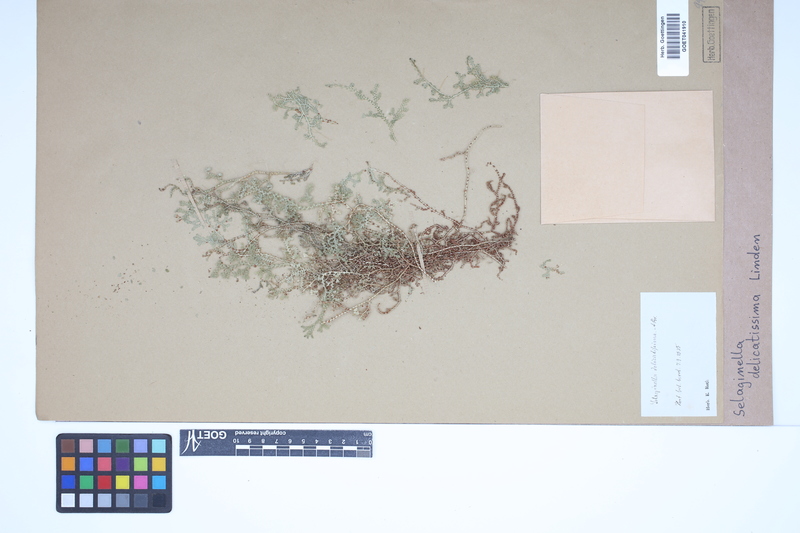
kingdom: Plantae
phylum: Tracheophyta
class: Lycopodiopsida
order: Selaginellales
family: Selaginellaceae
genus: Selaginella
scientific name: Selaginella delicatissima
